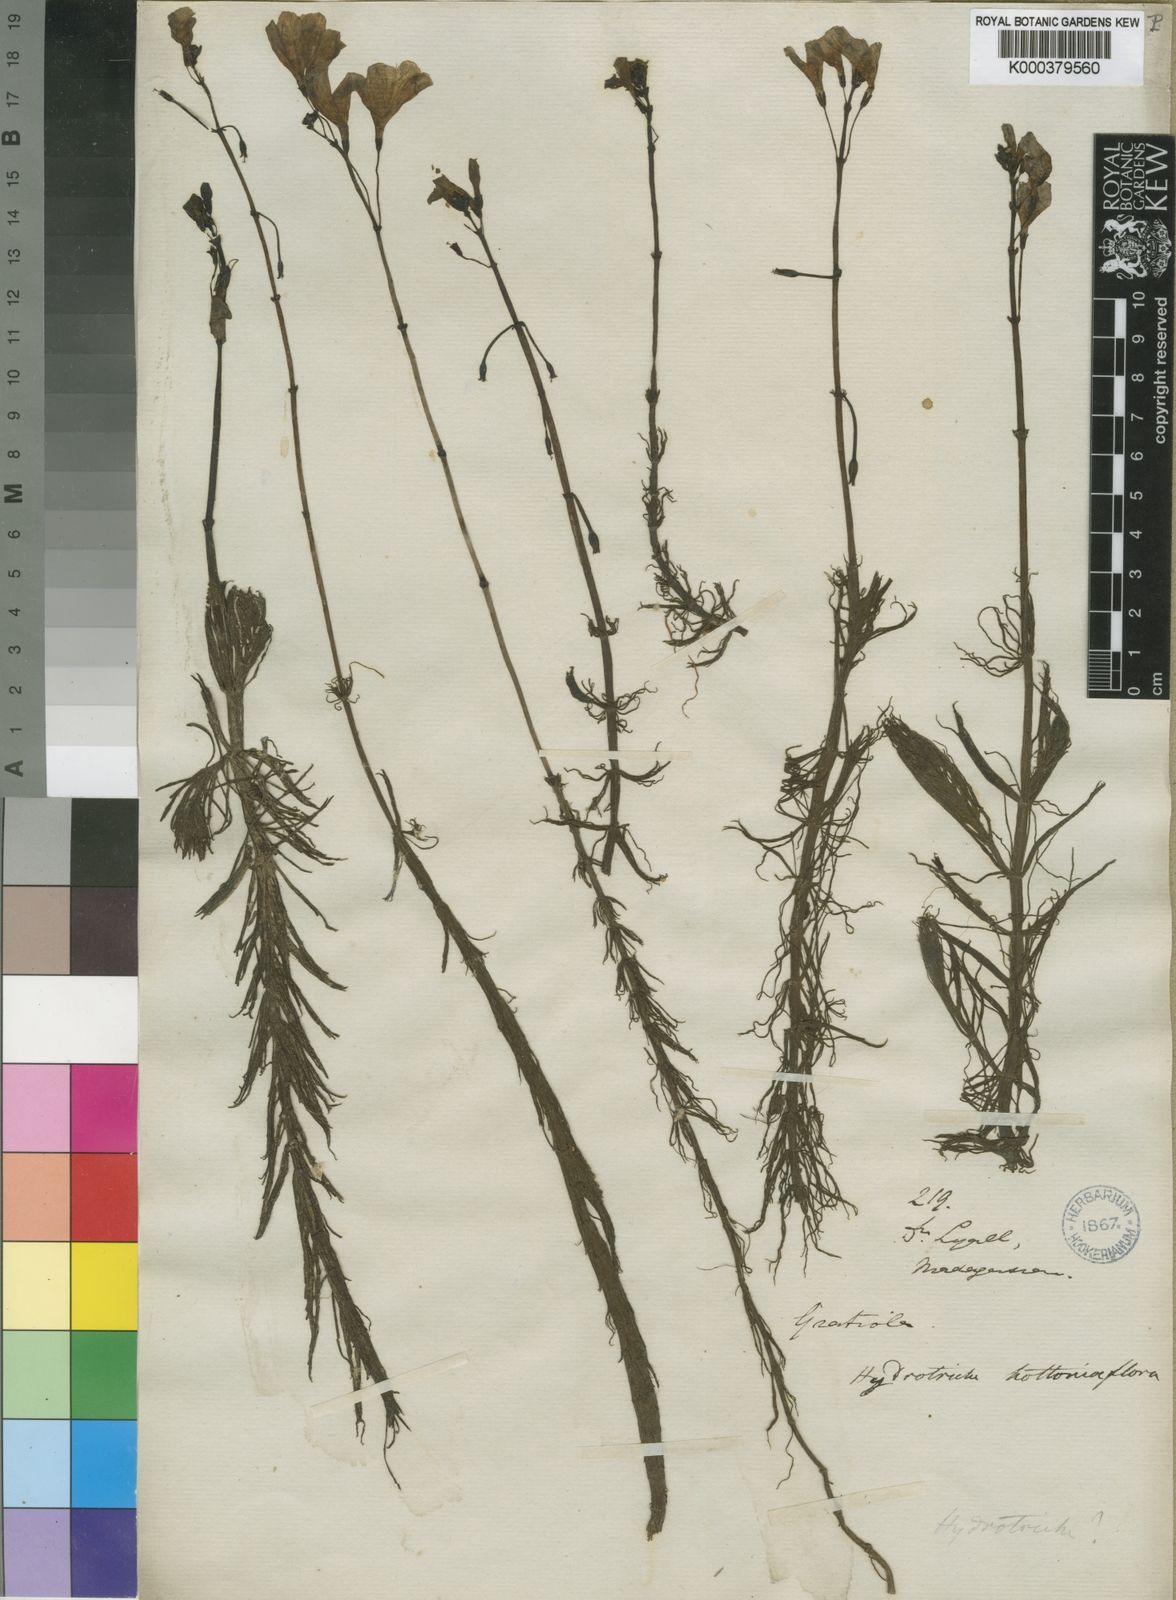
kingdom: Plantae
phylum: Tracheophyta
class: Magnoliopsida
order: Lamiales
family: Plantaginaceae
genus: Hydrotriche
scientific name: Hydrotriche
